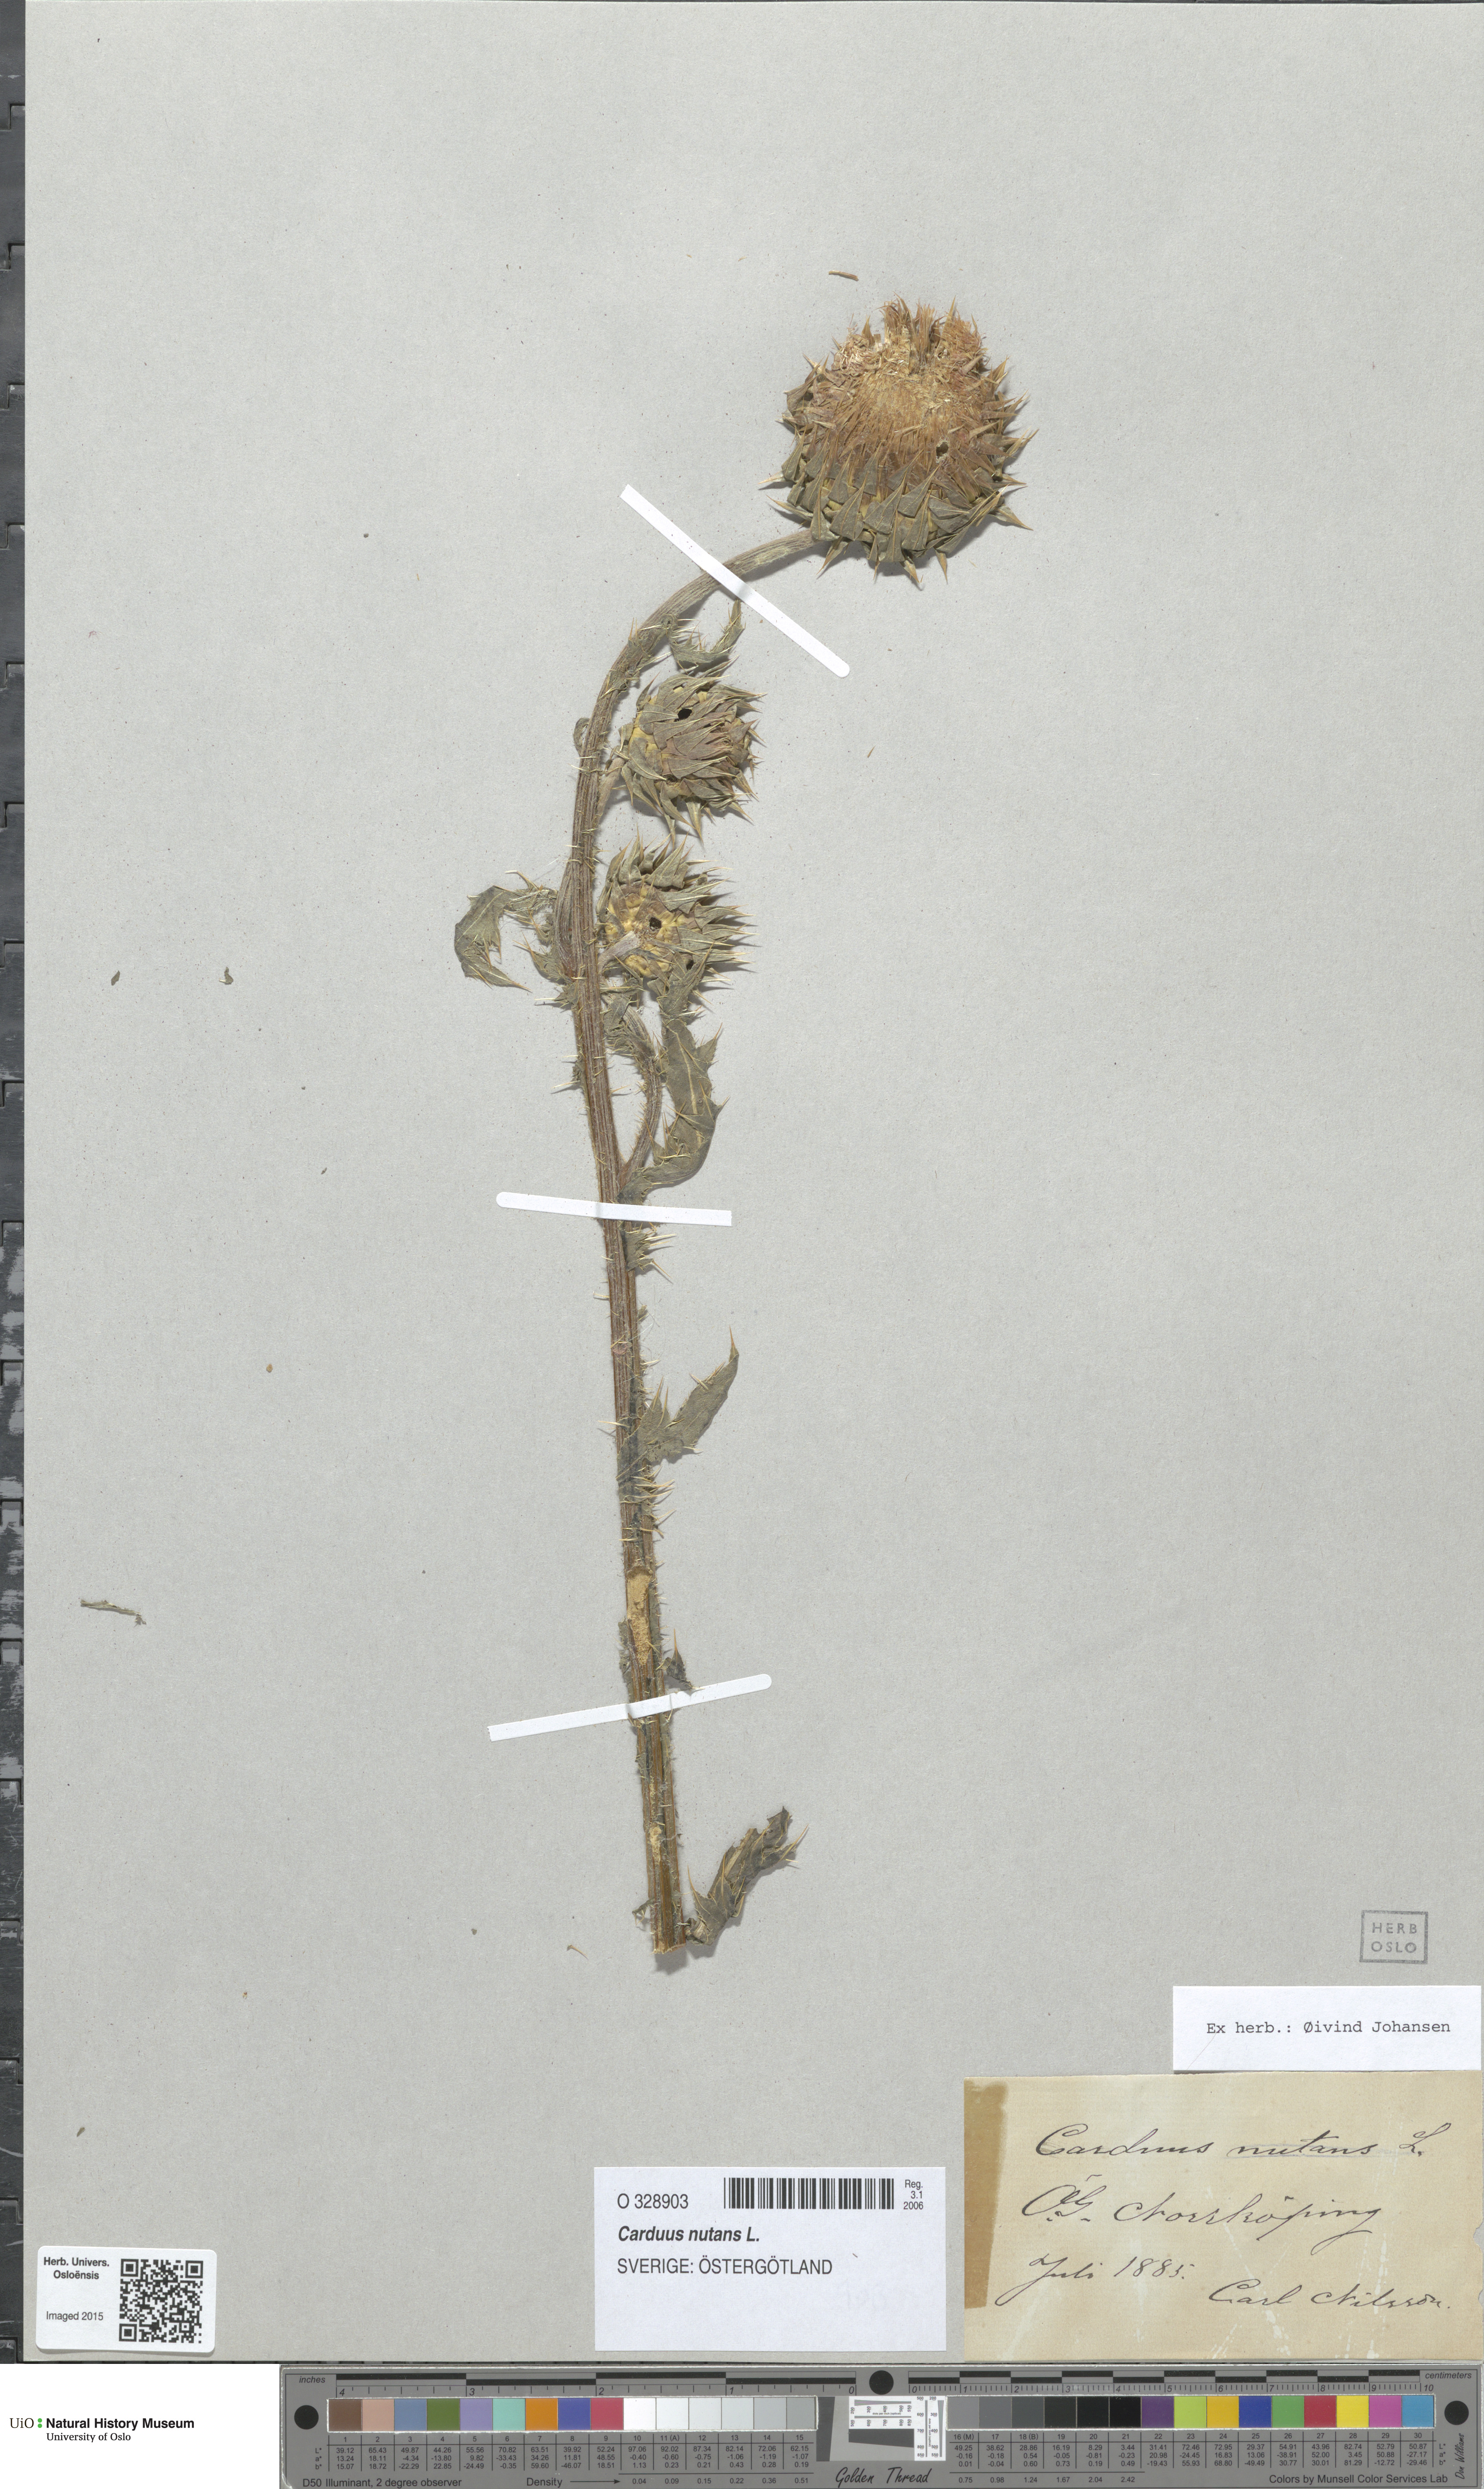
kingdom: Plantae
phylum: Tracheophyta
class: Magnoliopsida
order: Asterales
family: Asteraceae
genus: Carduus
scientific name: Carduus nutans
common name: Musk thistle
